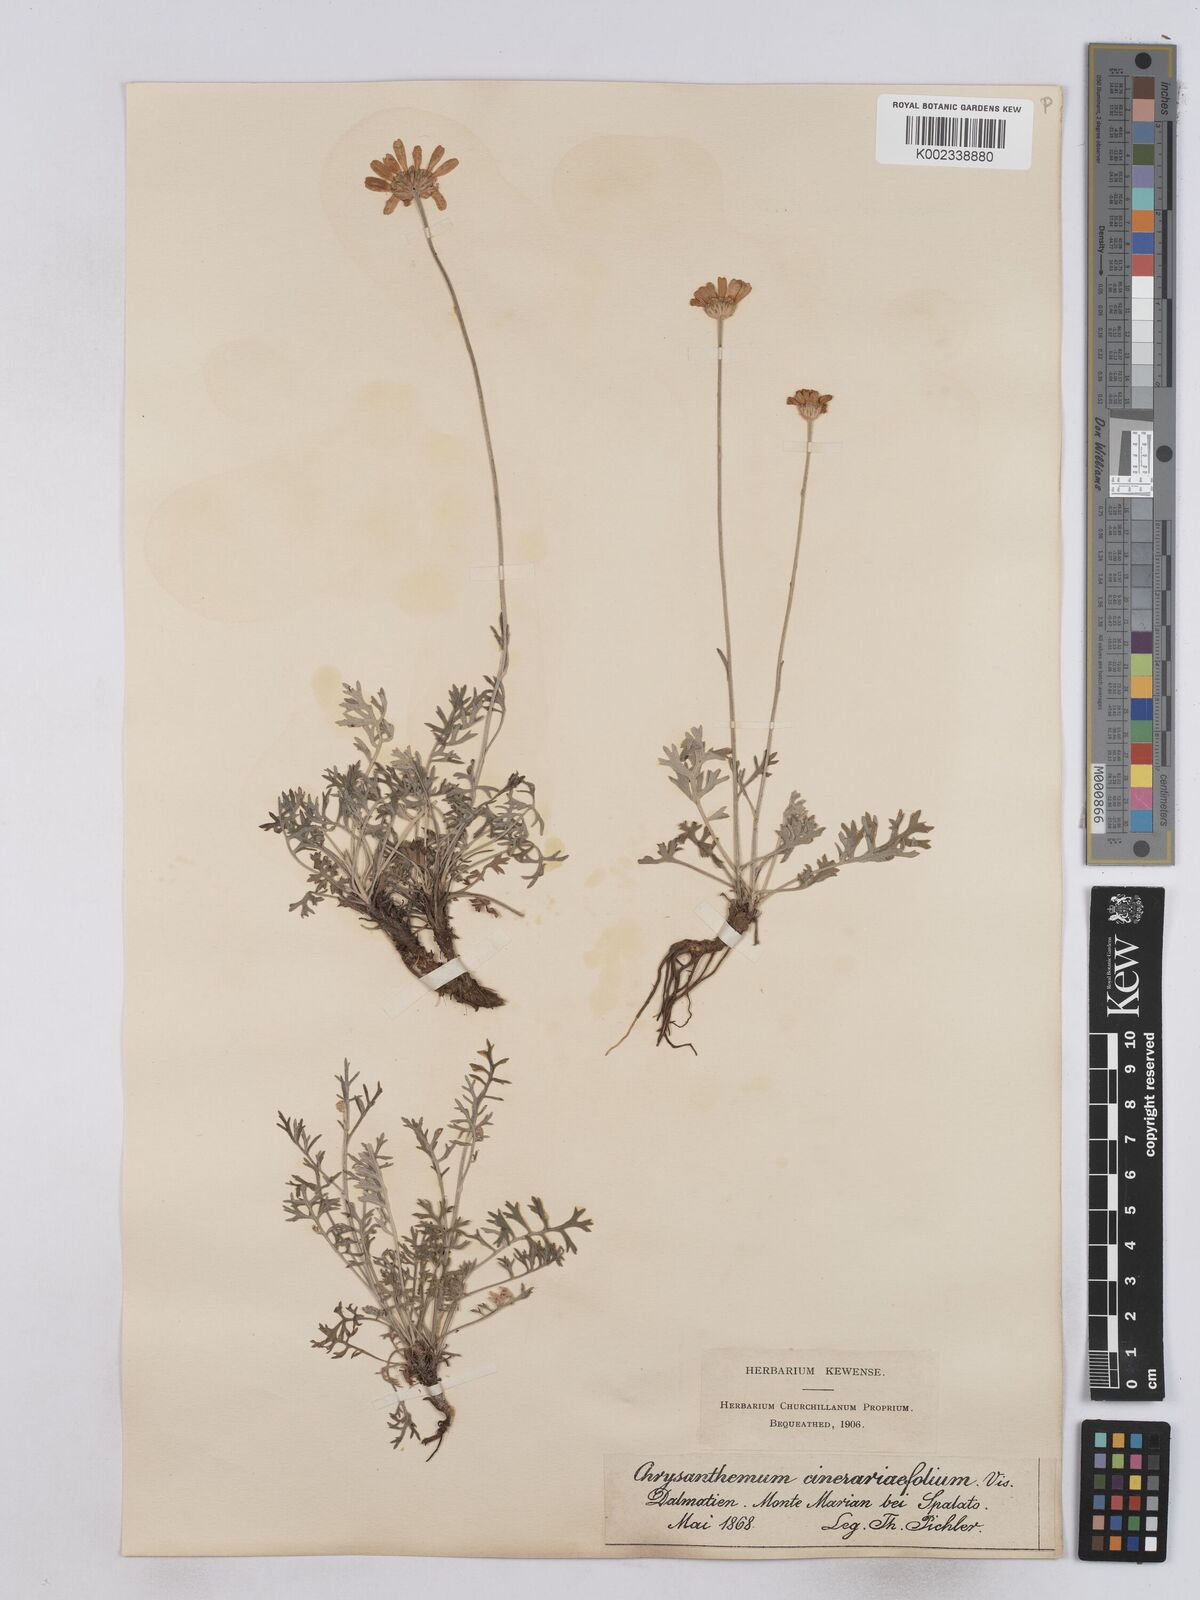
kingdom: Plantae
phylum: Tracheophyta
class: Magnoliopsida
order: Asterales
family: Asteraceae
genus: Tanacetum
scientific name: Tanacetum cinerariifolium
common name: Dalmatian pyrethrum
